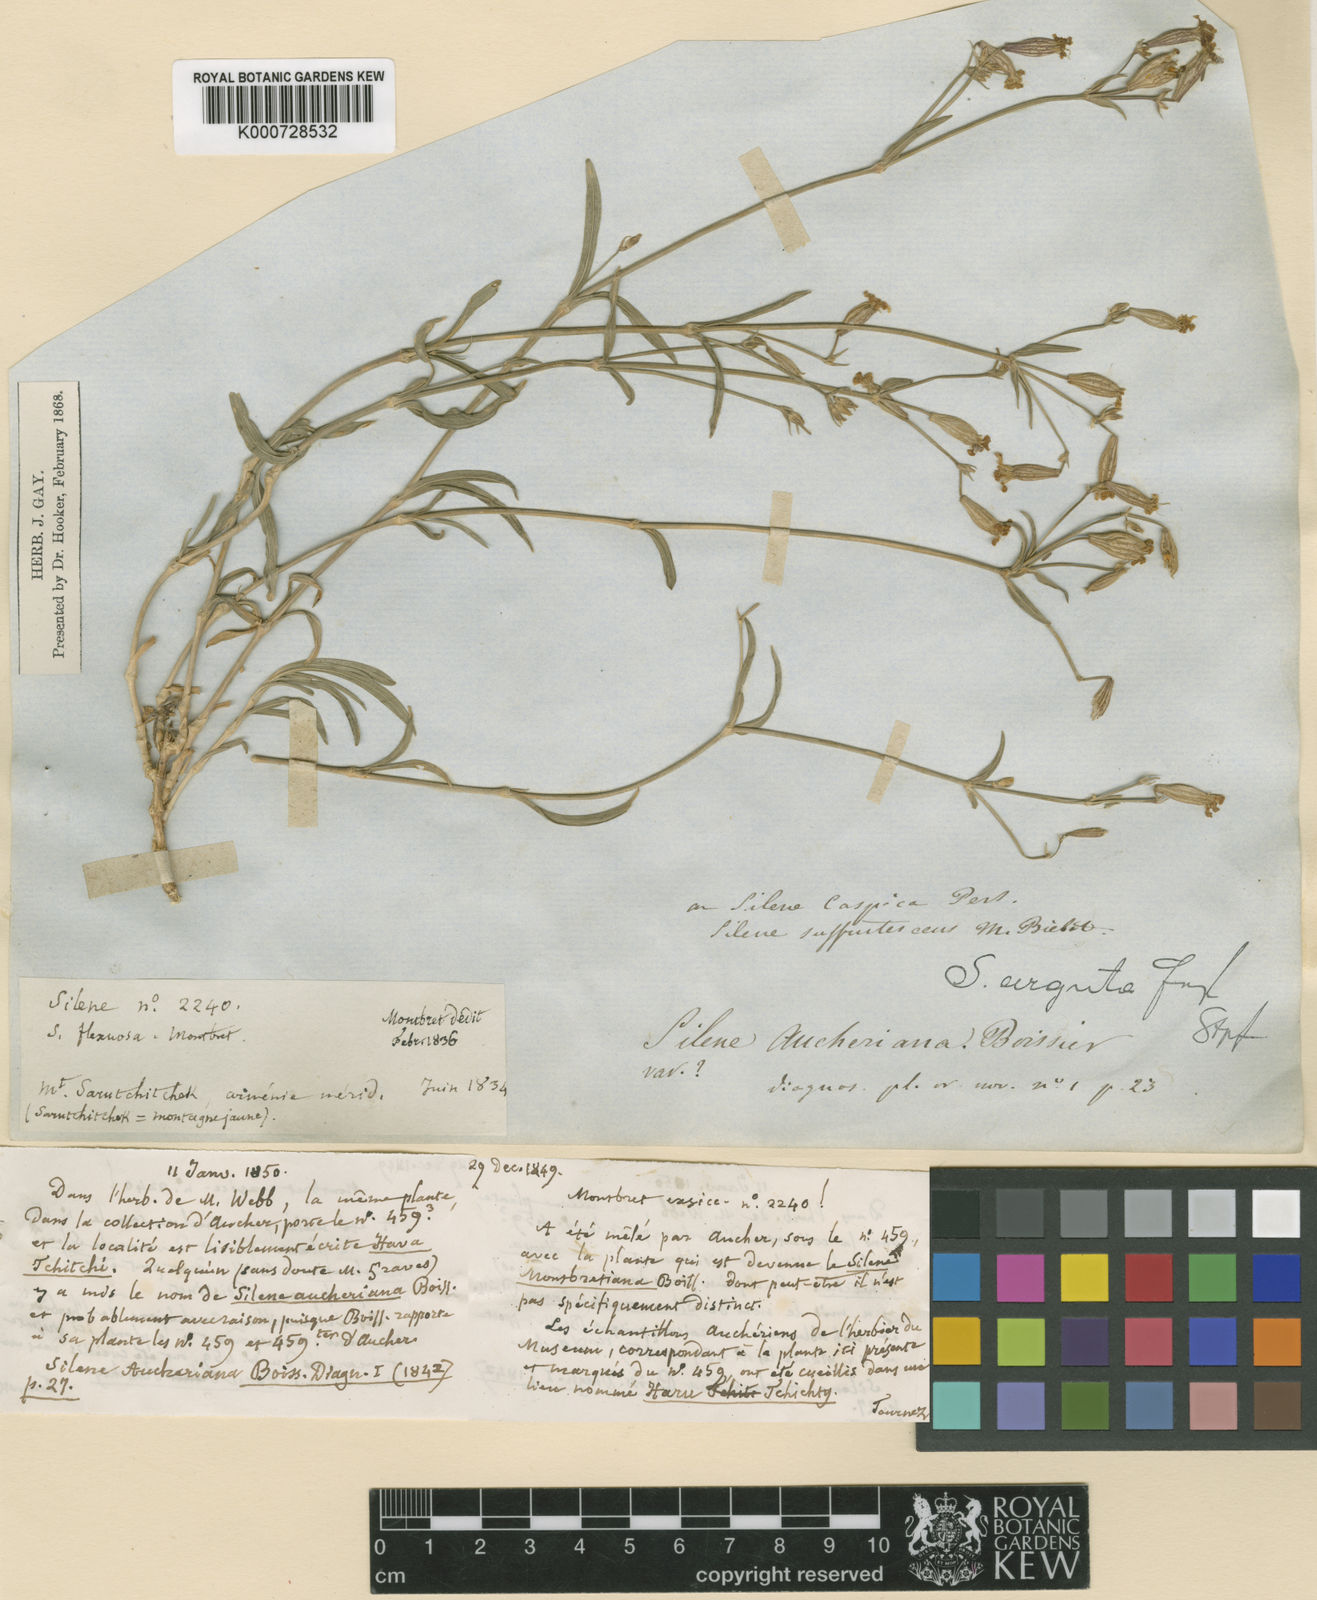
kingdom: Plantae
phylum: Tracheophyta
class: Magnoliopsida
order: Caryophyllales
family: Caryophyllaceae
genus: Silene
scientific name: Silene arguta
